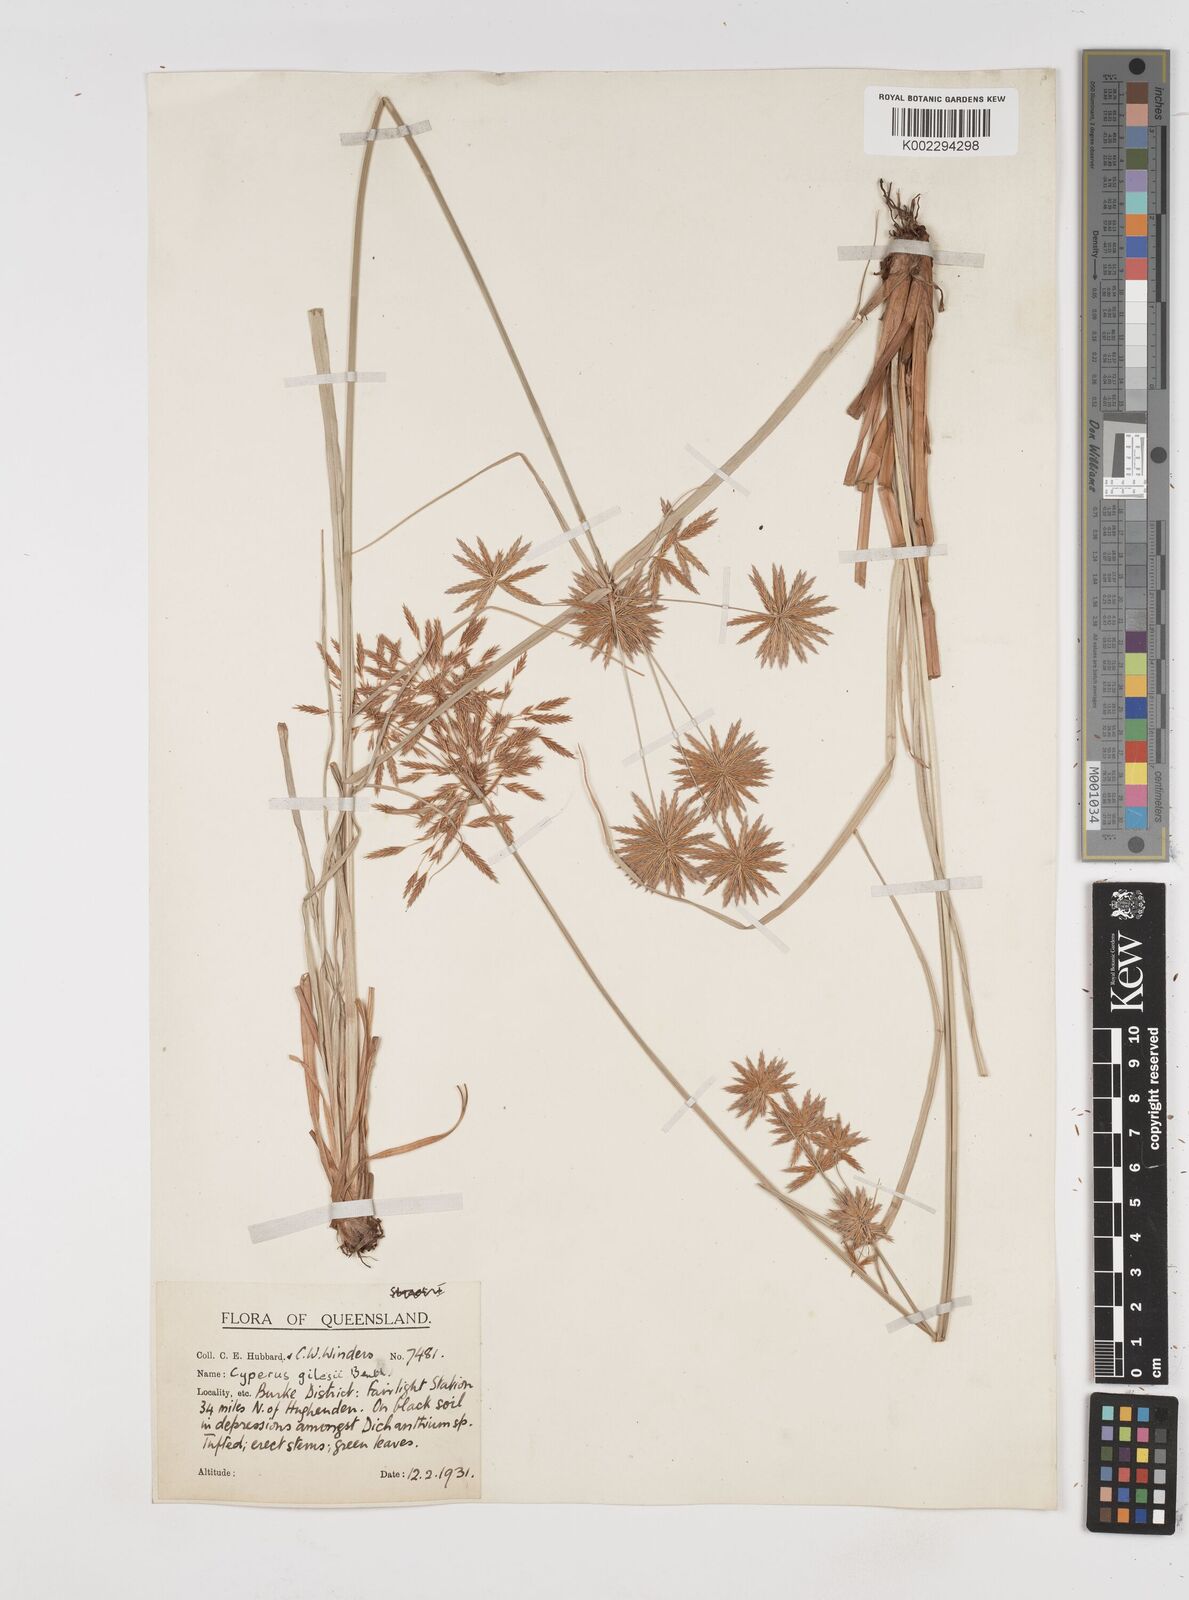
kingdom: Plantae
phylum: Tracheophyta
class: Liliopsida
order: Poales
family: Cyperaceae
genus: Cyperus
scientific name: Cyperus gilesii
